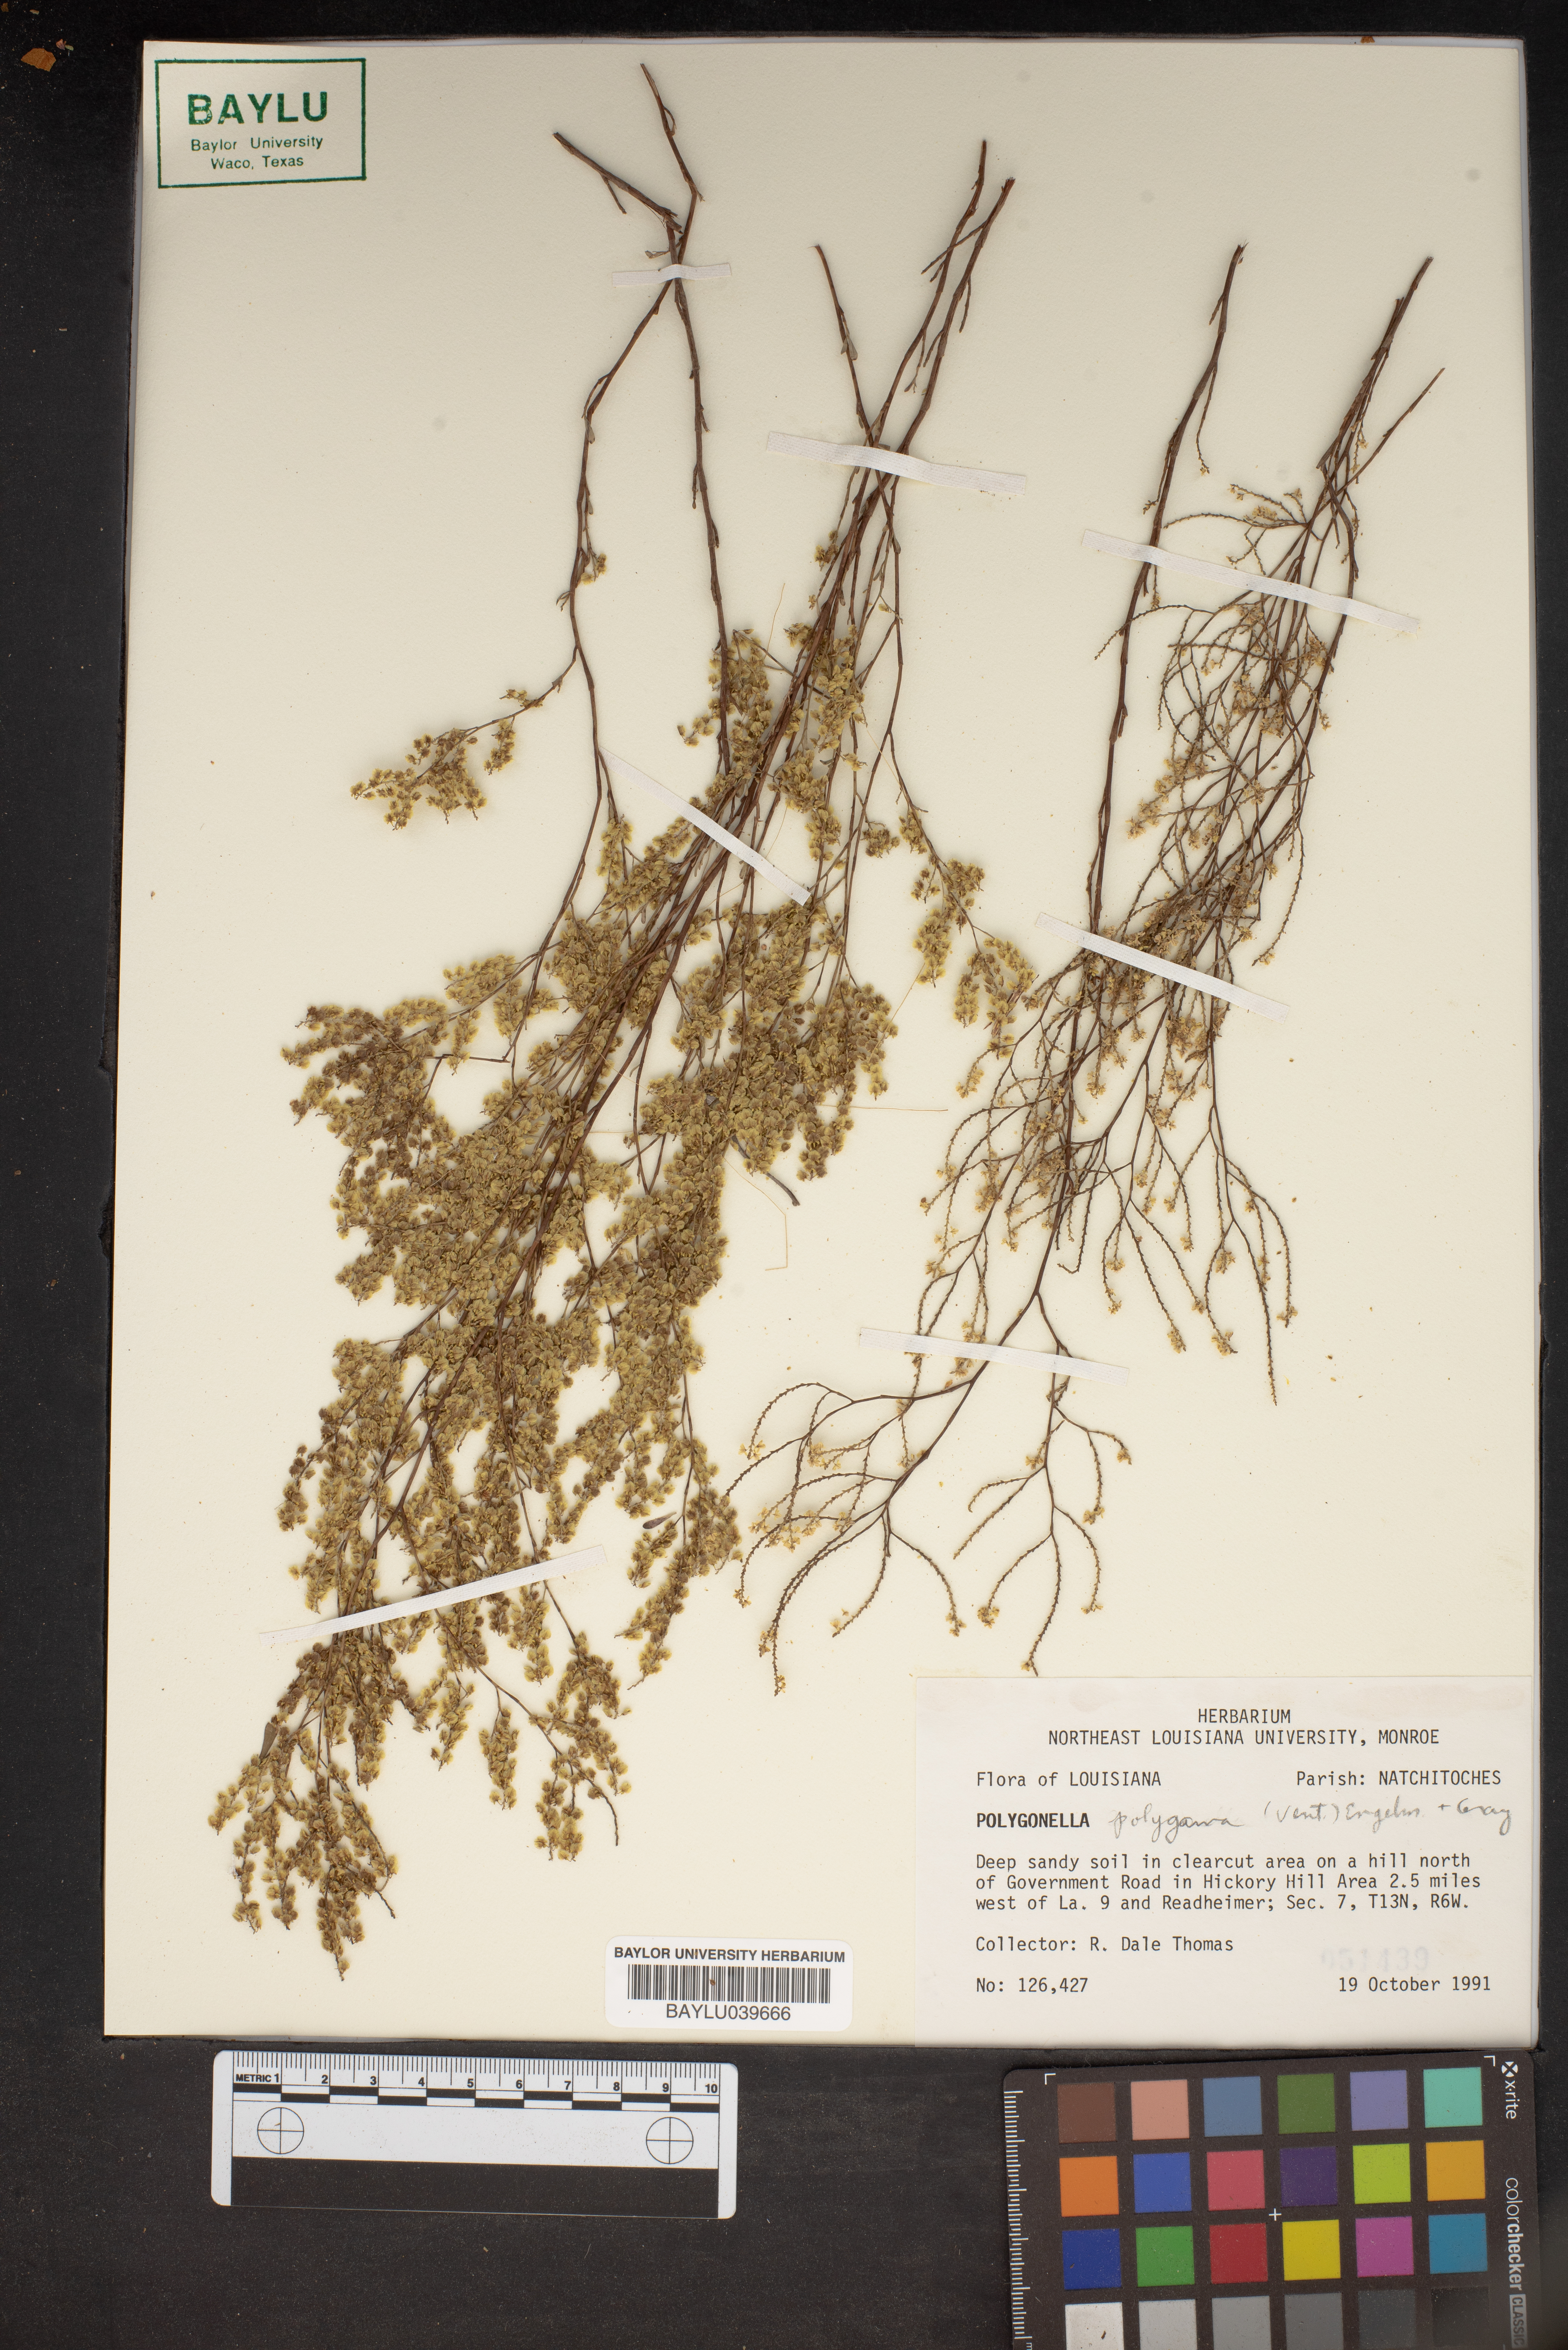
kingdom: Plantae
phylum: Tracheophyta
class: Magnoliopsida
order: Caryophyllales
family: Polygonaceae
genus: Polygonella
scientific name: Polygonella polygama
